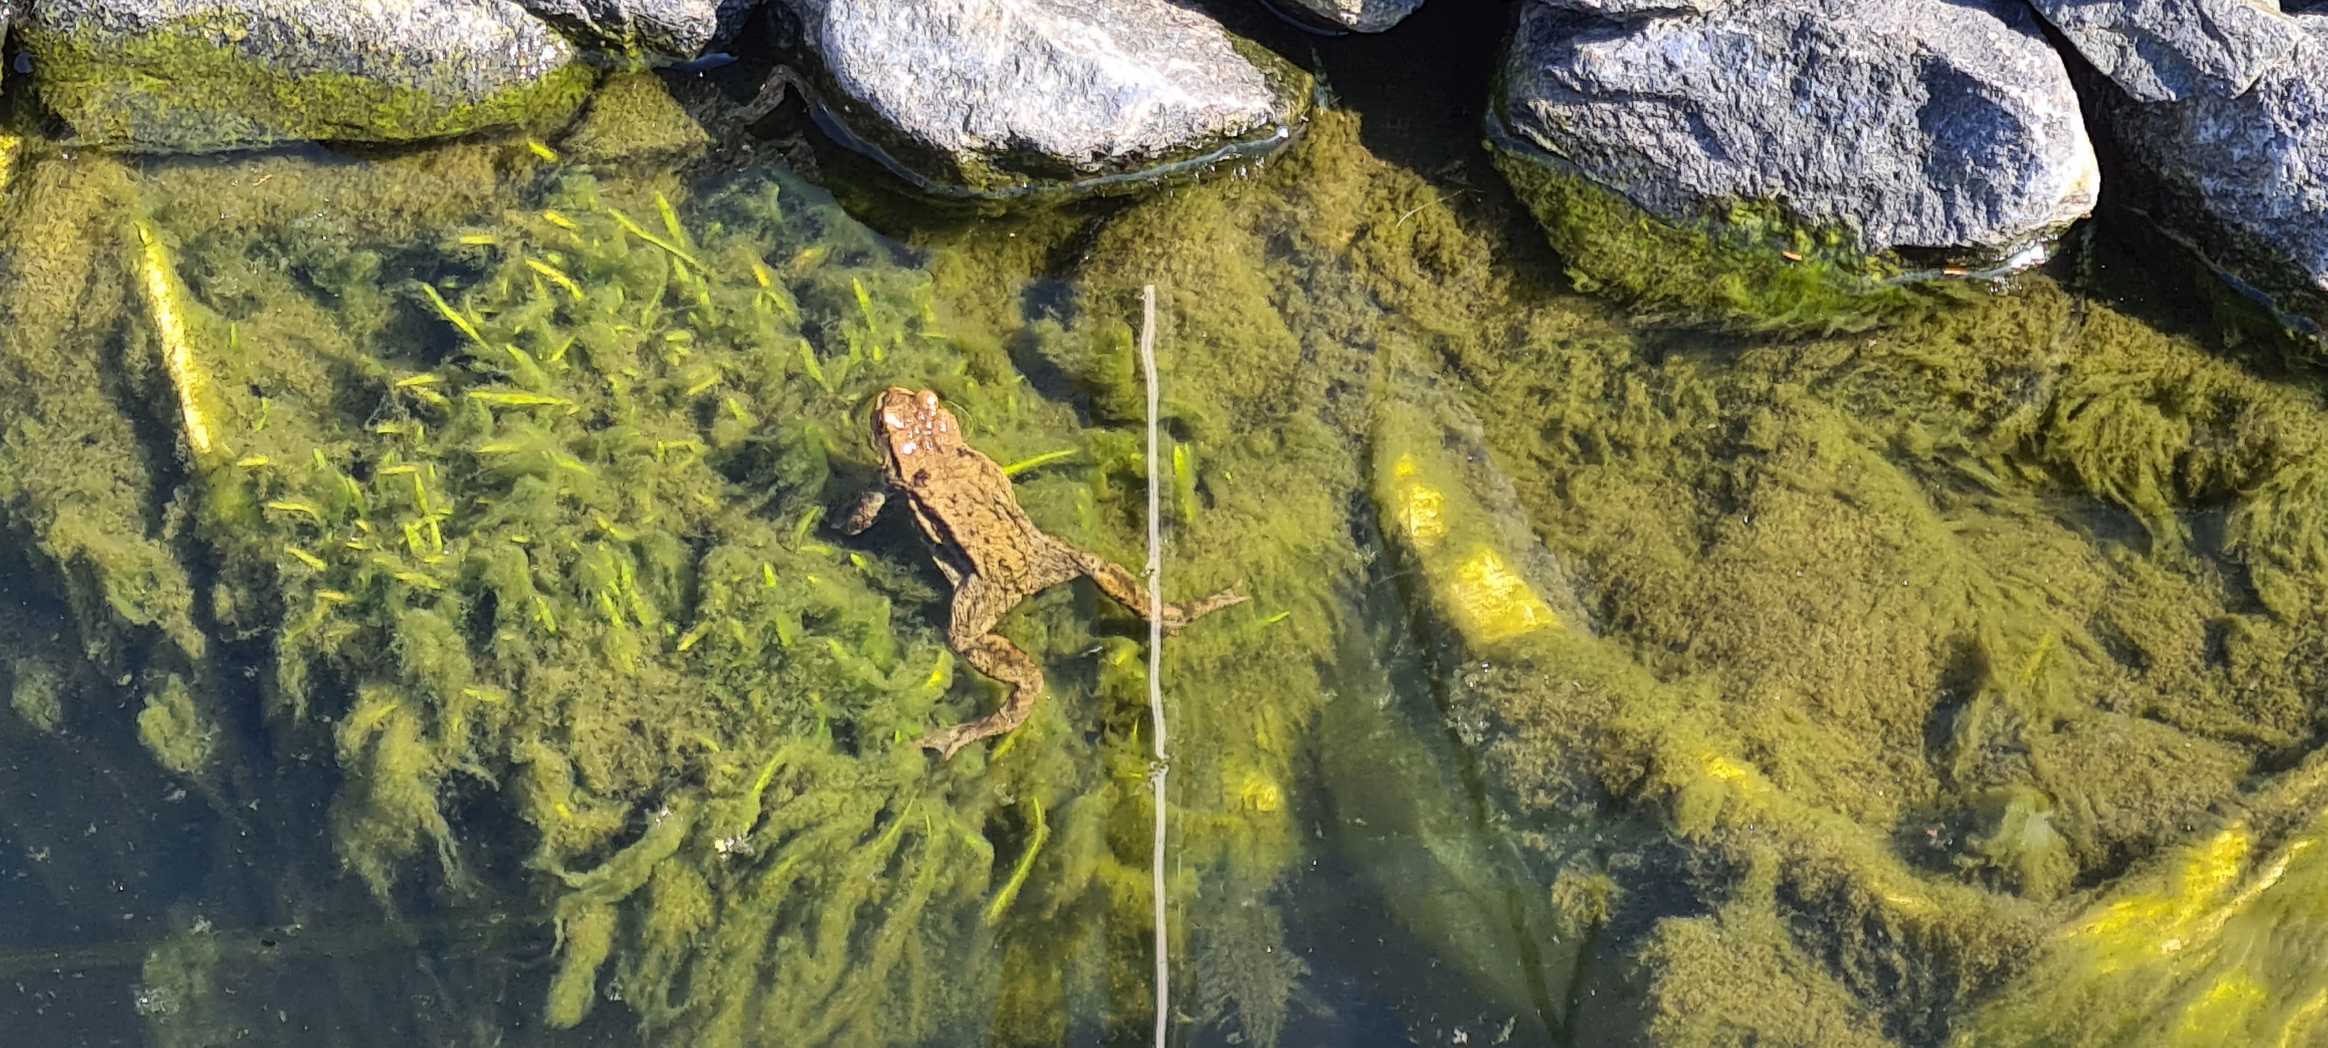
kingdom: Animalia
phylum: Chordata
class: Amphibia
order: Anura
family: Bufonidae
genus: Bufo
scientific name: Bufo bufo
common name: Skrubtudse
